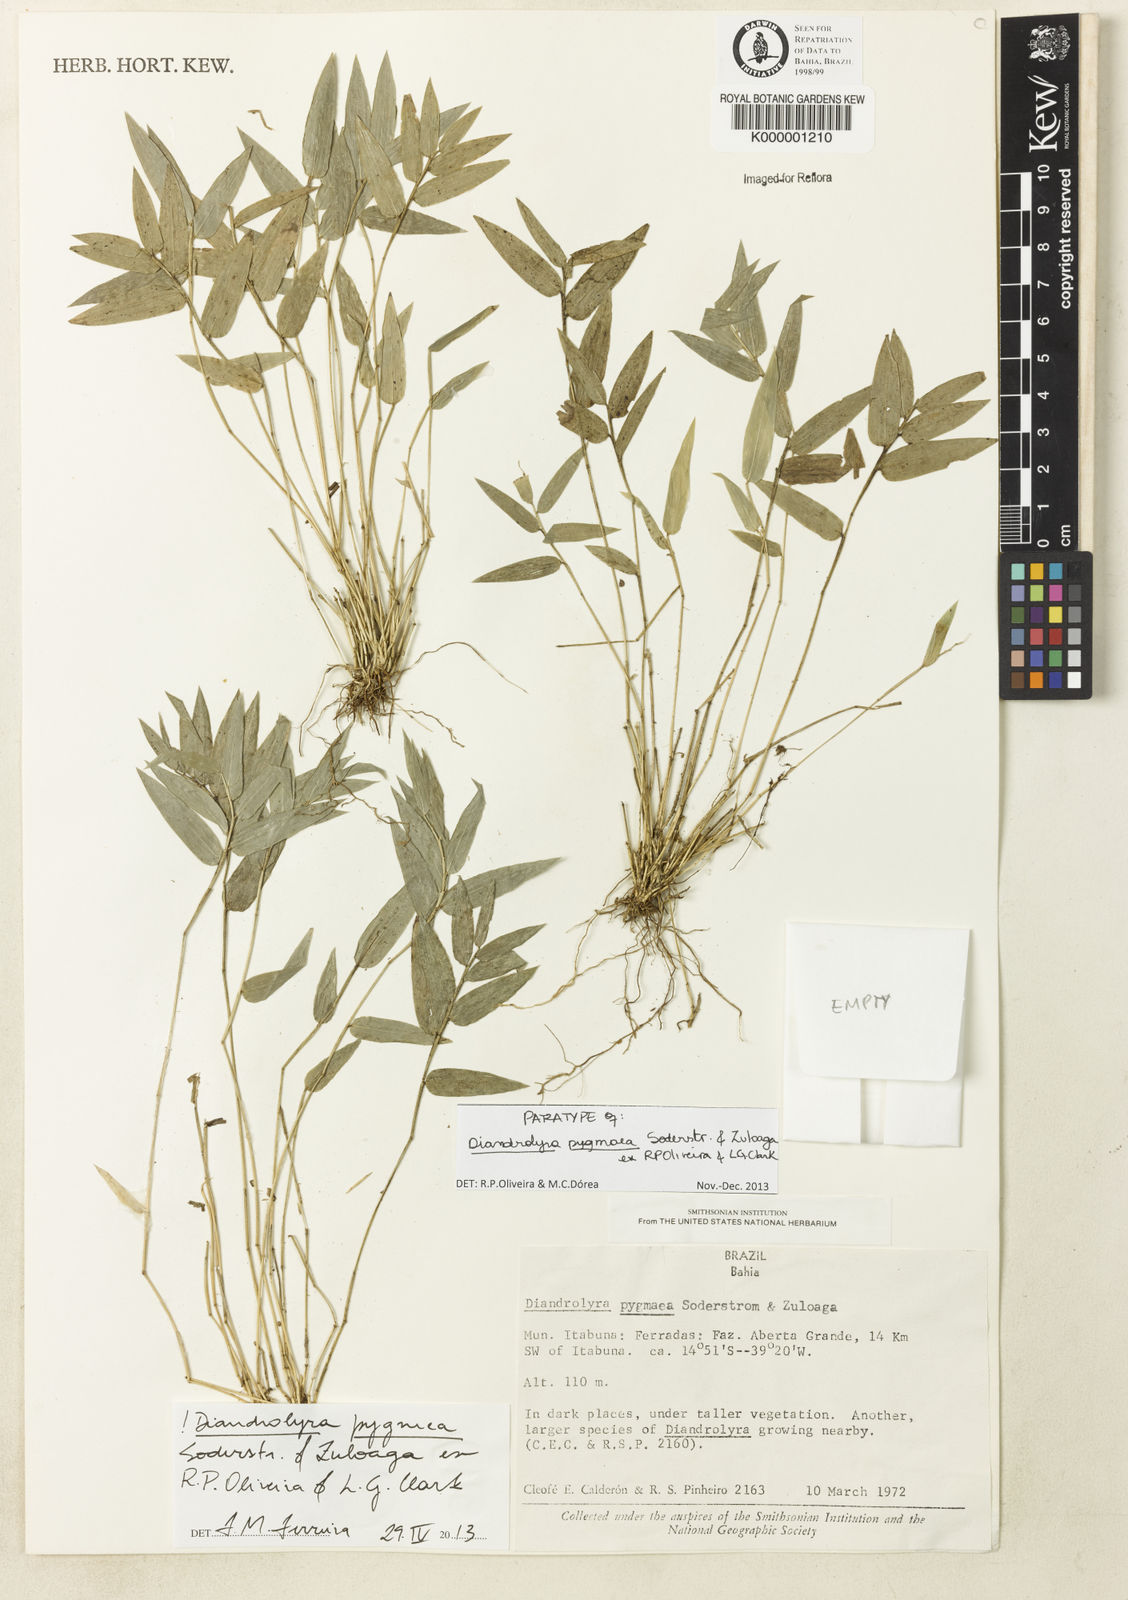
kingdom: Plantae
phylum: Tracheophyta
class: Liliopsida
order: Poales
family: Poaceae
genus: Diandrolyra
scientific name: Diandrolyra
